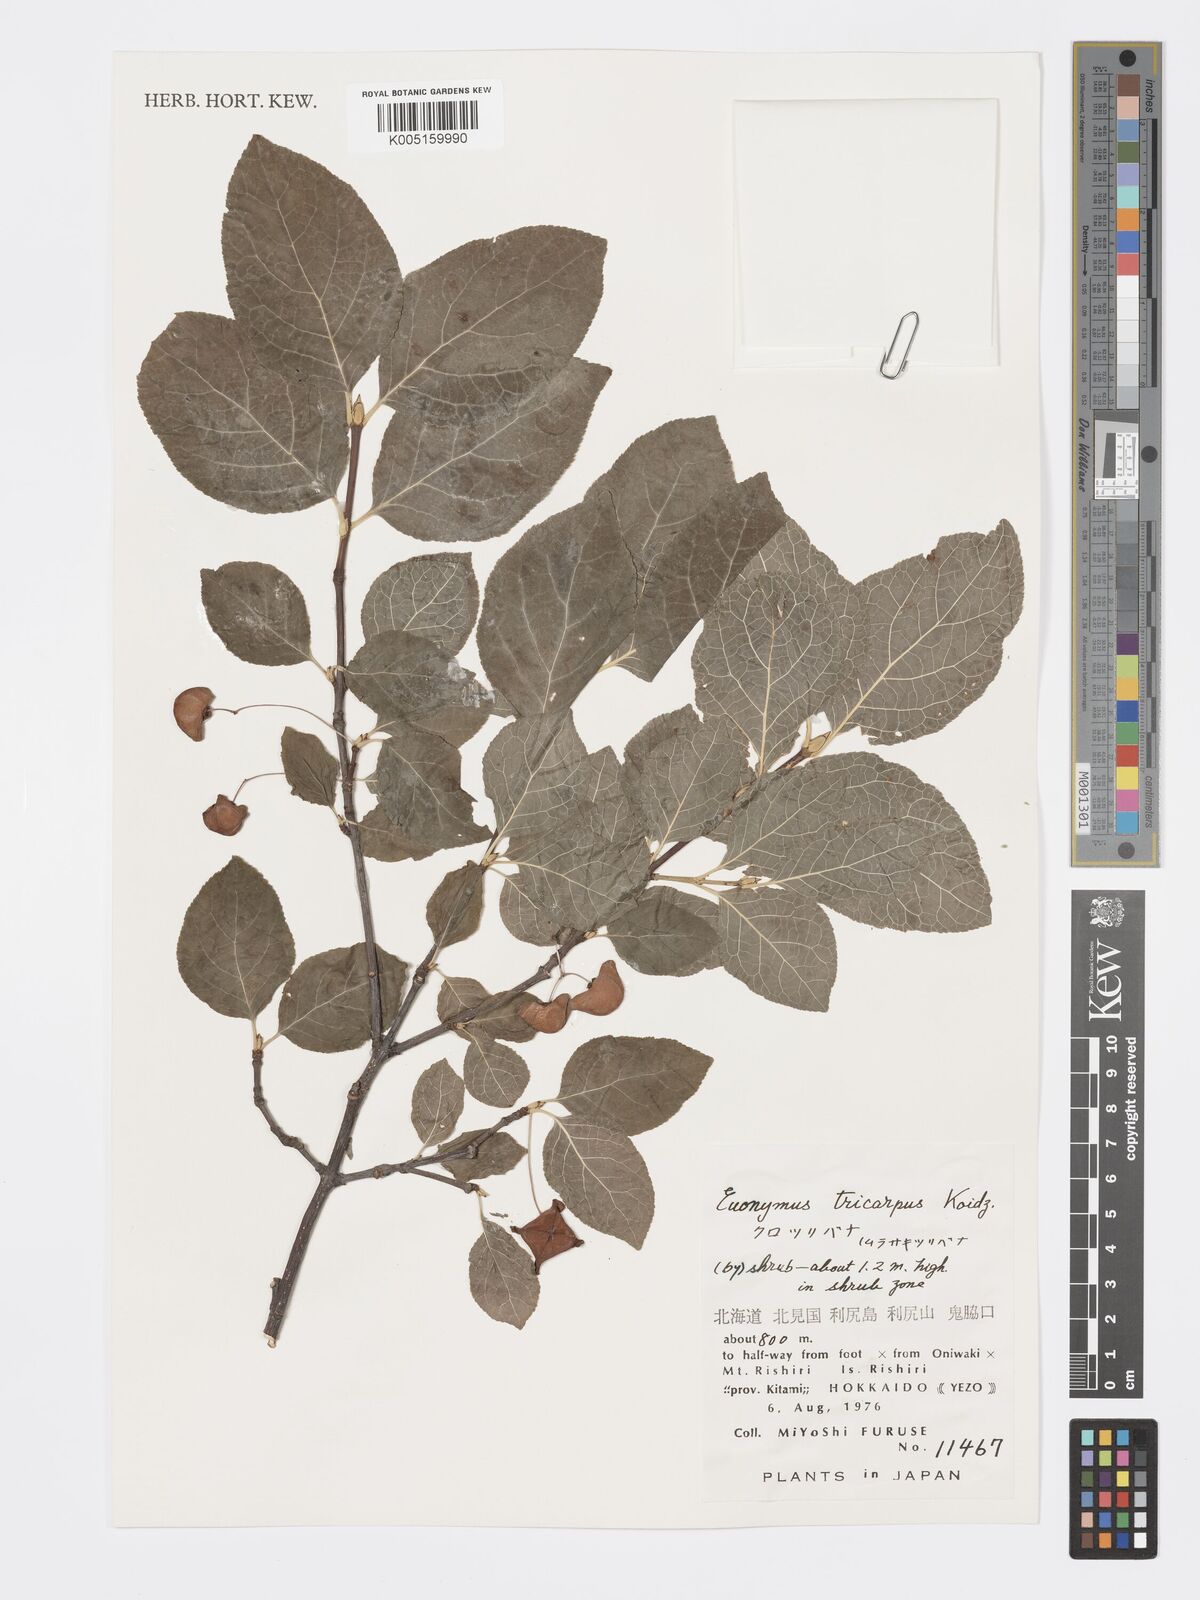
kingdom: Plantae
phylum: Tracheophyta
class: Magnoliopsida
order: Celastrales
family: Celastraceae
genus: Euonymus
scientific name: Euonymus sachalinensis
